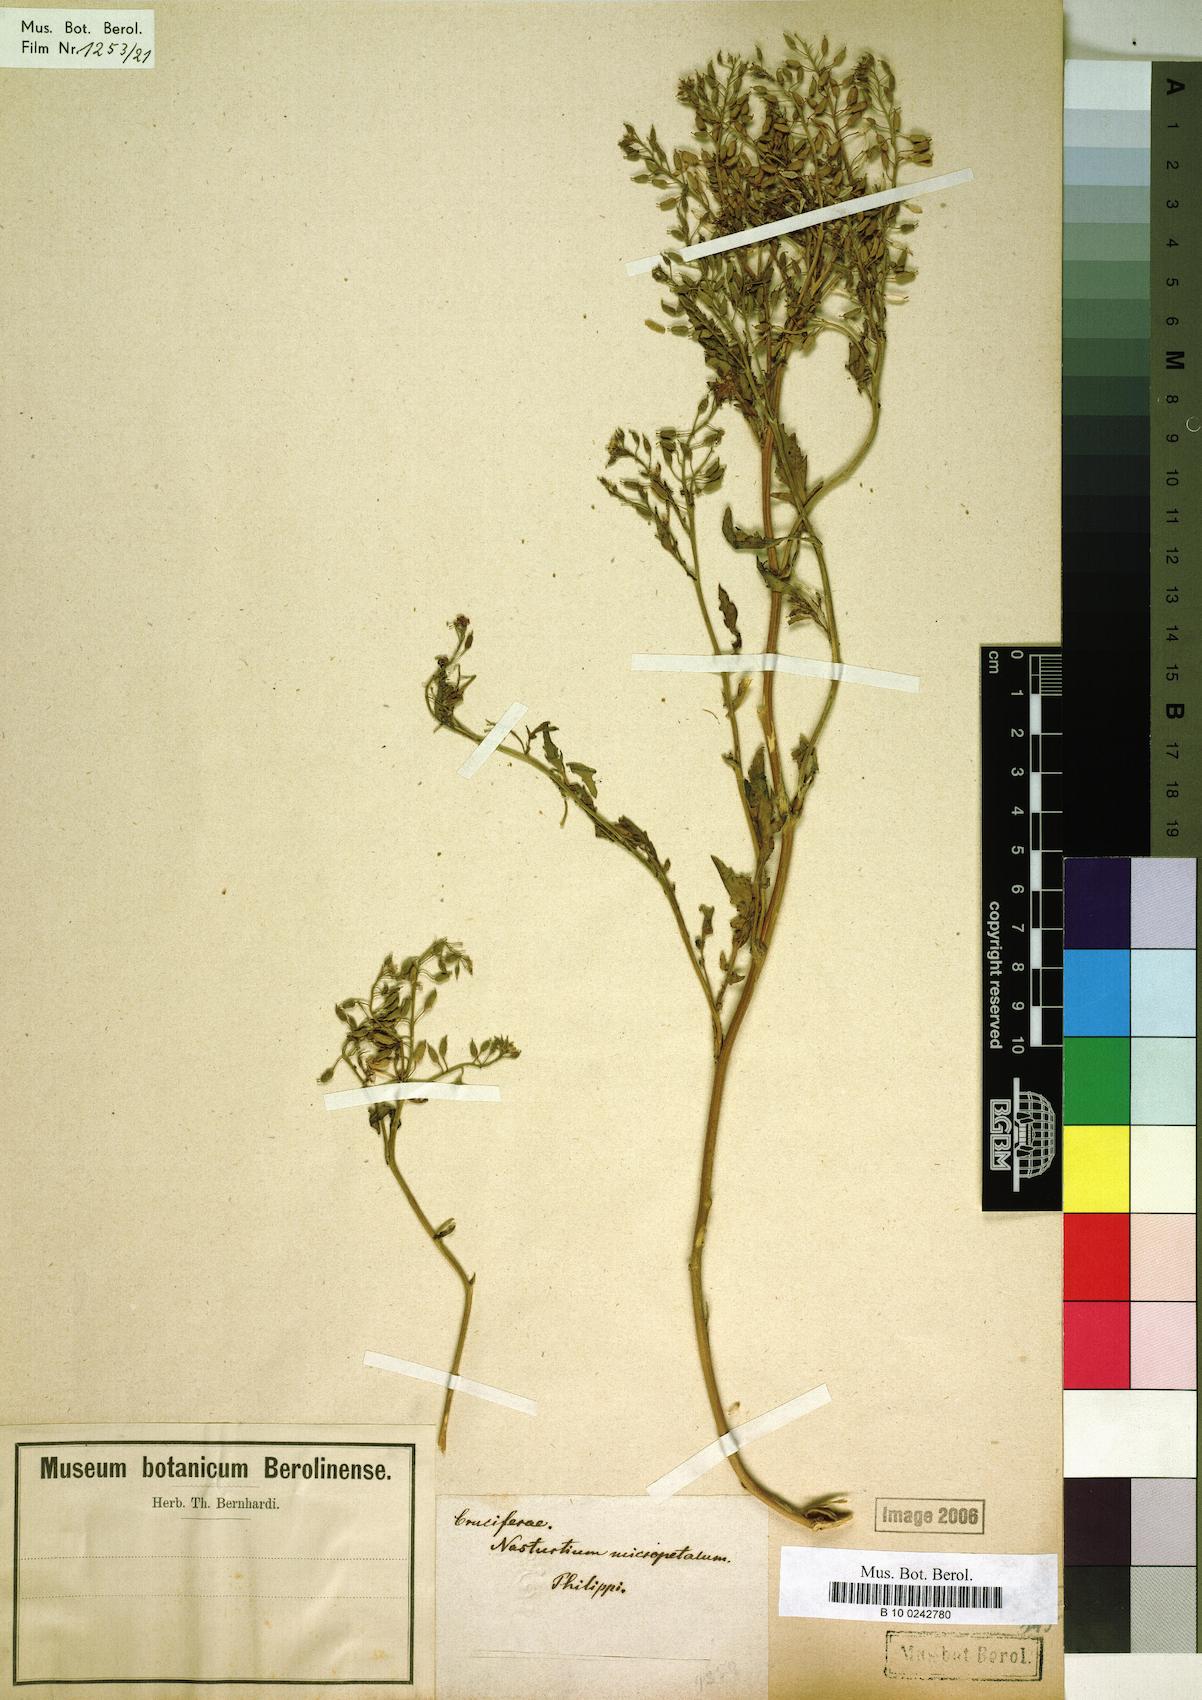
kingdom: Plantae
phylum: Tracheophyta
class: Magnoliopsida
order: Brassicales
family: Brassicaceae
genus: Rorippa
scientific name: Rorippa teres
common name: Southern marsh yellowcress
